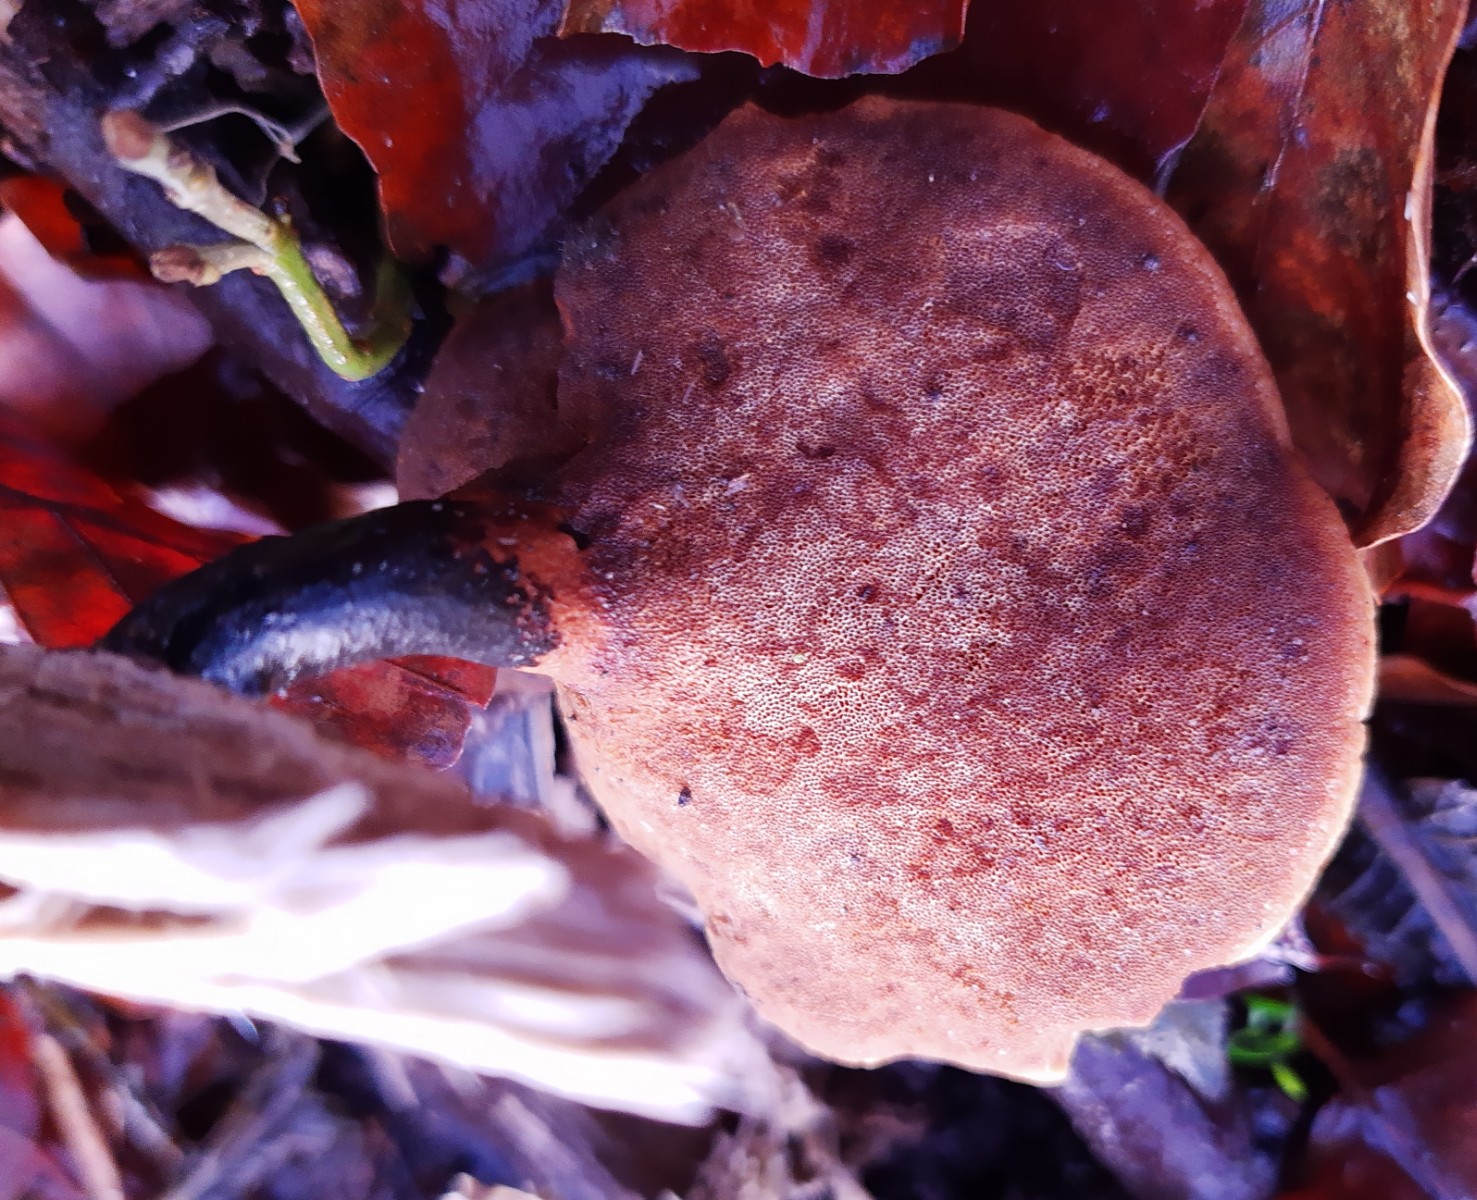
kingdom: Fungi
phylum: Basidiomycota
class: Agaricomycetes
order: Polyporales
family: Polyporaceae
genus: Cerioporus
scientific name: Cerioporus varius
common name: foranderlig stilkporesvamp
